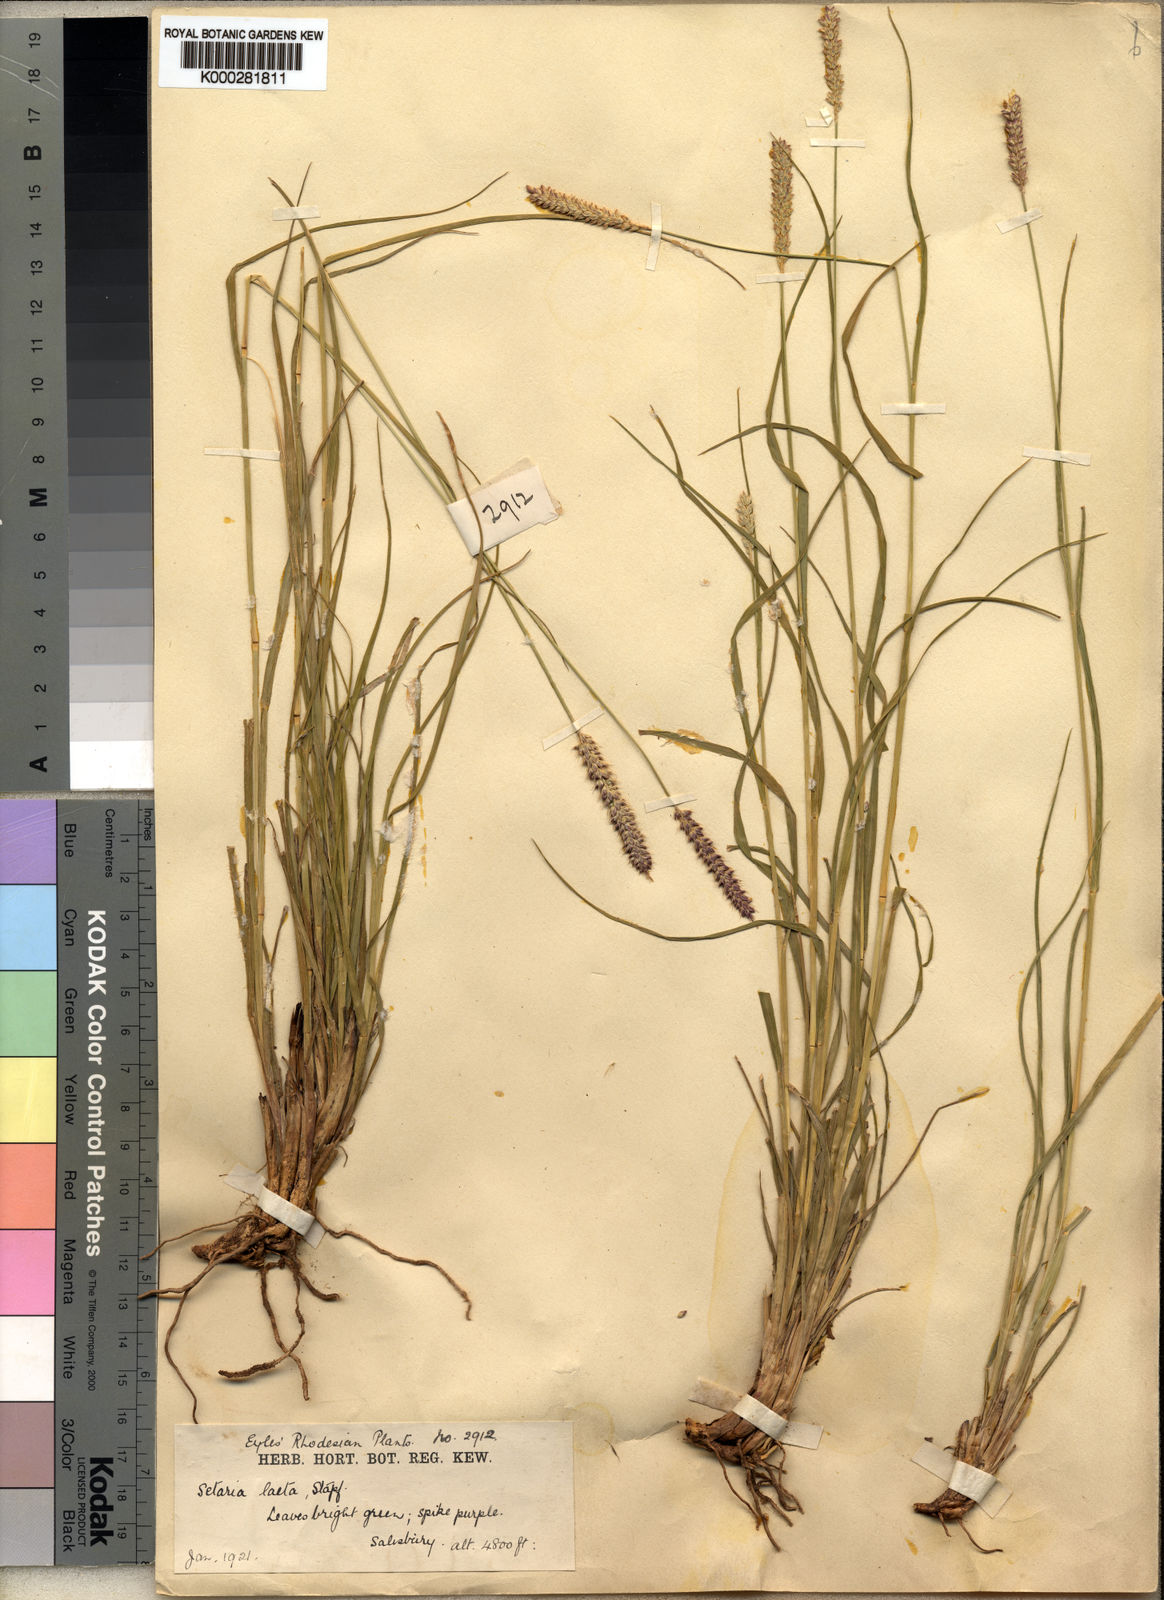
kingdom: Plantae
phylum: Tracheophyta
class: Liliopsida
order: Poales
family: Poaceae
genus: Setaria
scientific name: Setaria sphacelata
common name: African bristlegrass
